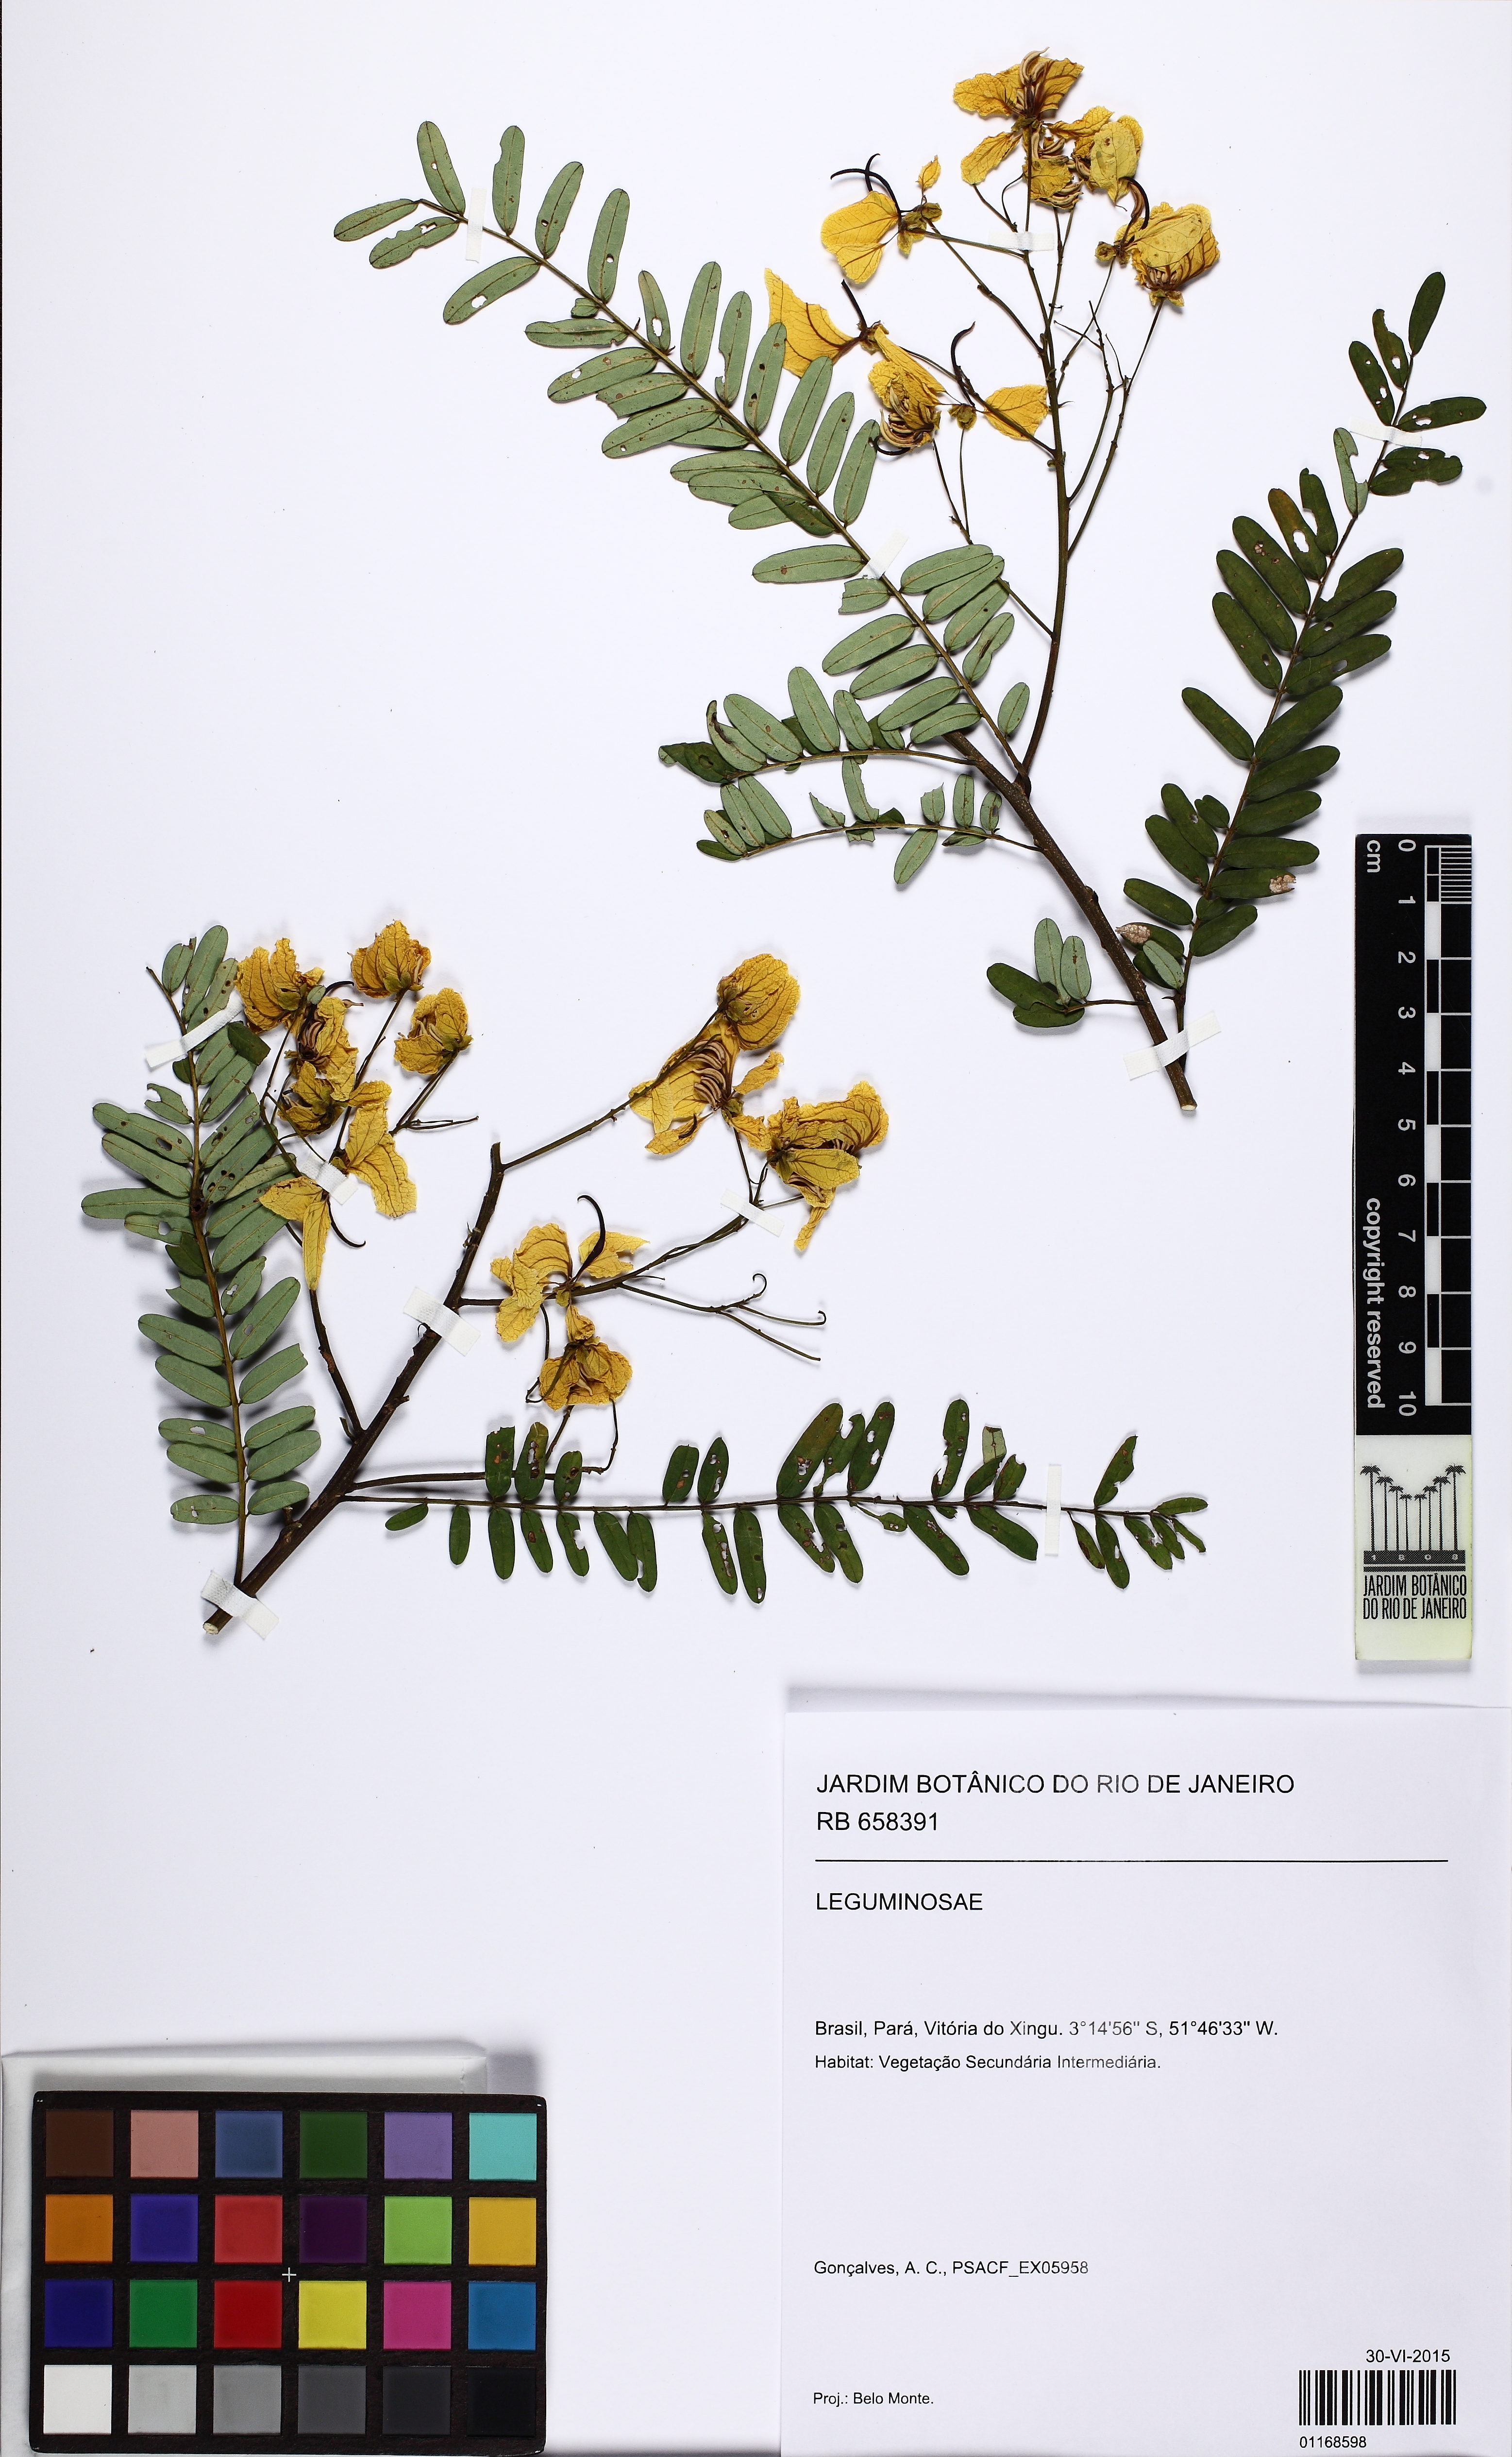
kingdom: Plantae
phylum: Tracheophyta
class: Magnoliopsida
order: Fabales
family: Fabaceae
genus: Senna
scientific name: Senna multijuga
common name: False sicklepod
